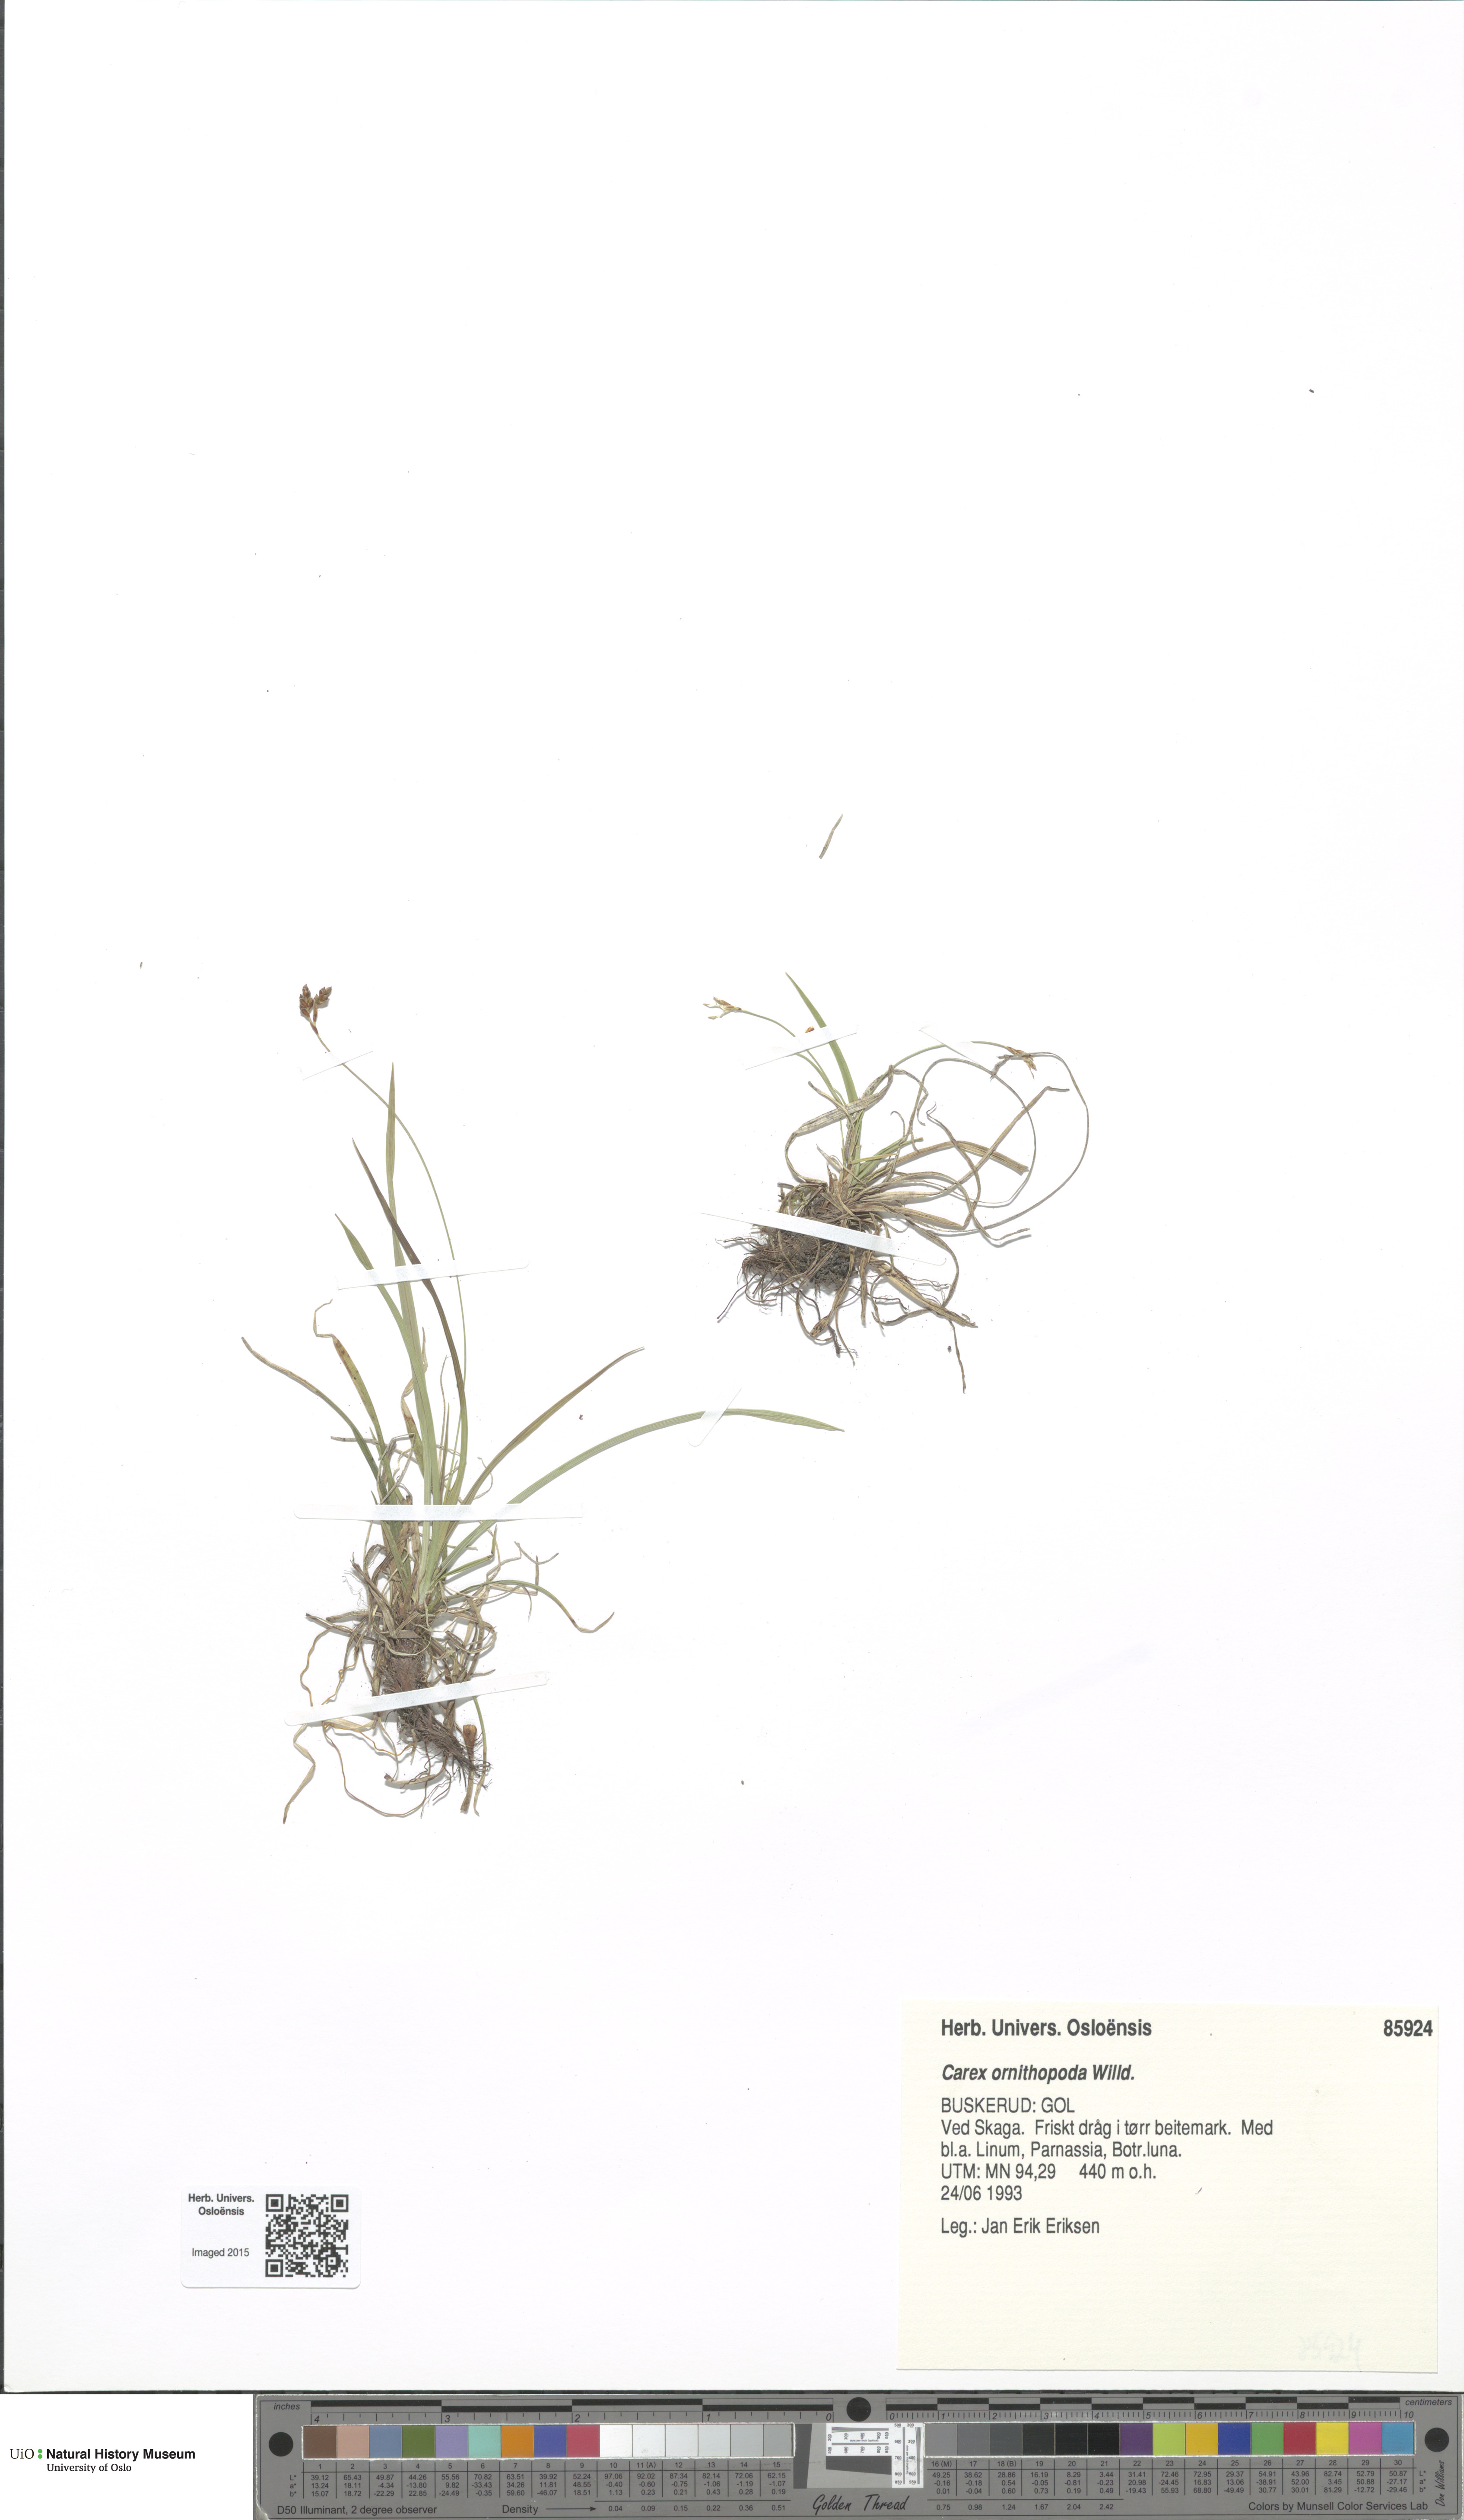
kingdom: Plantae
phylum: Tracheophyta
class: Liliopsida
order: Poales
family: Cyperaceae
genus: Carex
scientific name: Carex ornithopoda
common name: Bird's-foot sedge
